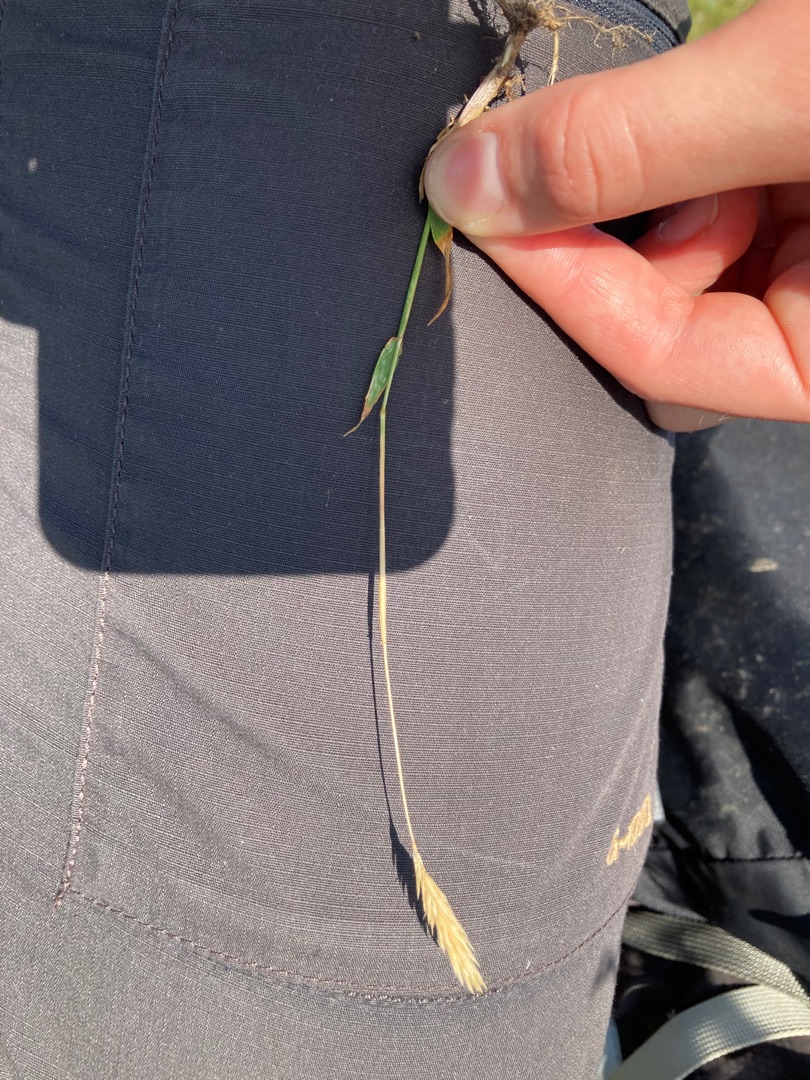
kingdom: Plantae
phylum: Tracheophyta
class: Liliopsida
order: Poales
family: Poaceae
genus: Anthoxanthum
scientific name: Anthoxanthum odoratum
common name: Vellugtende gulaks
